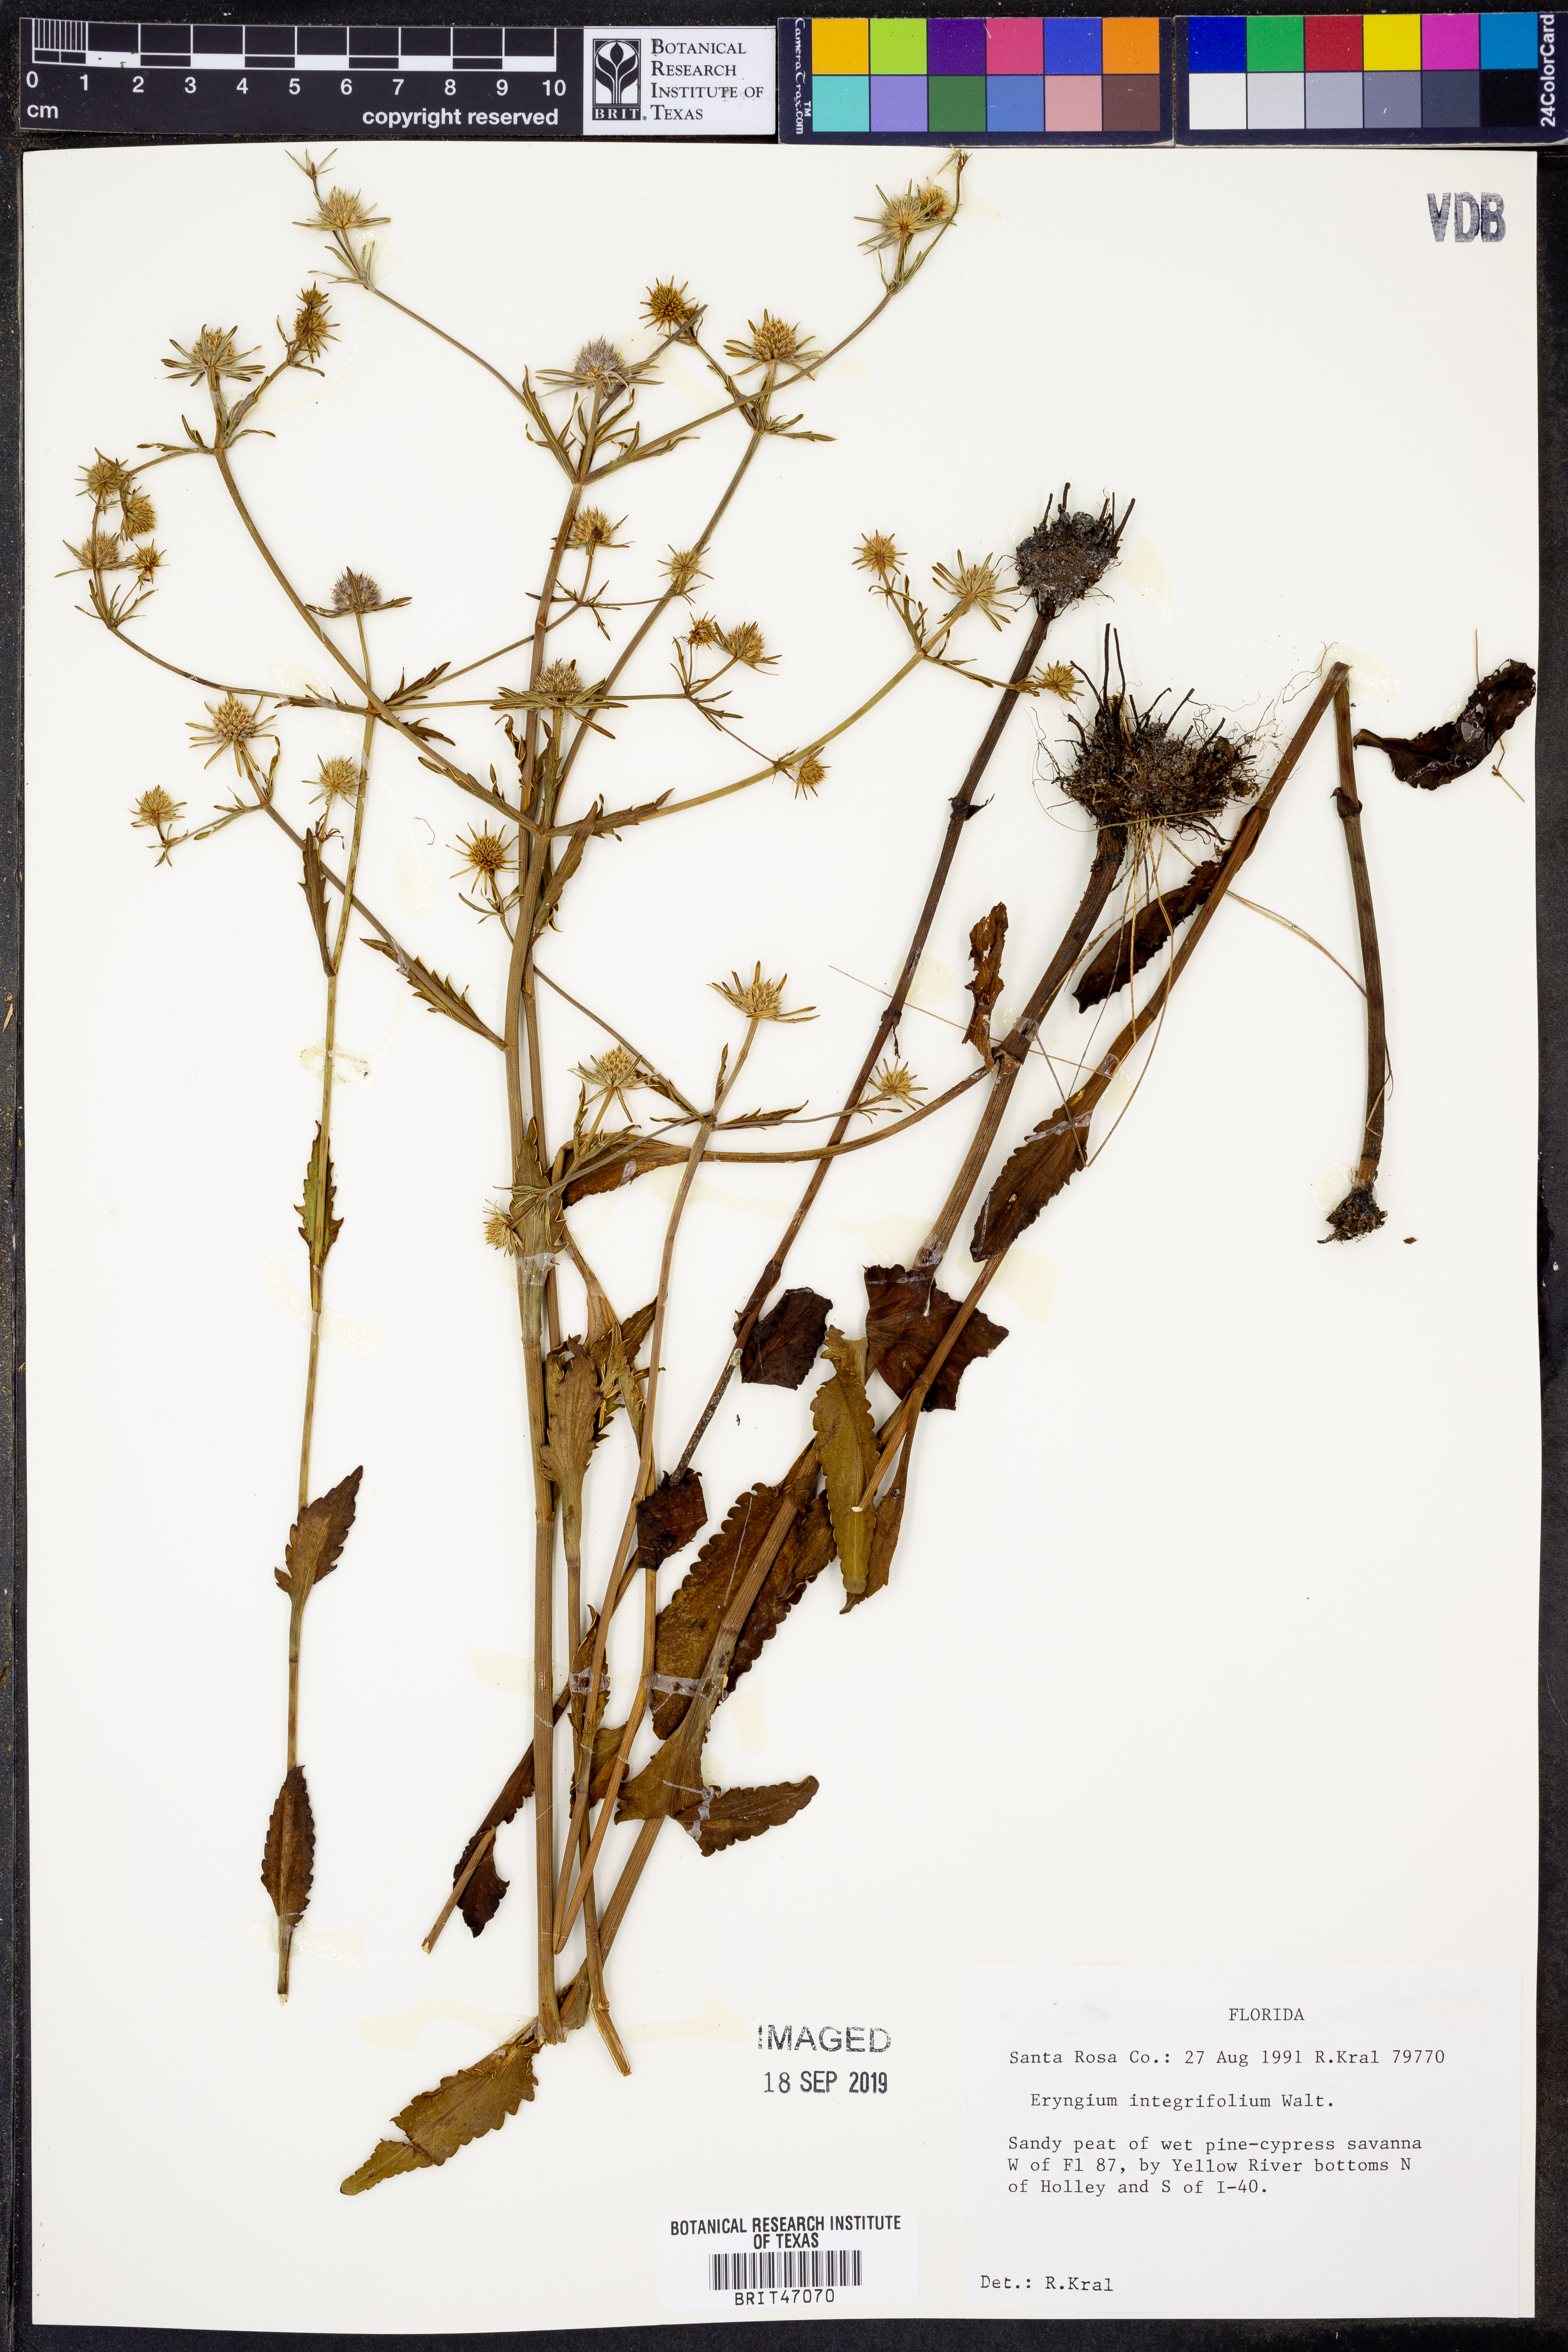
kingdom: Plantae
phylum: Tracheophyta
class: Magnoliopsida
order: Apiales
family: Apiaceae
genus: Eryngium
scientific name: Eryngium integrifolium
